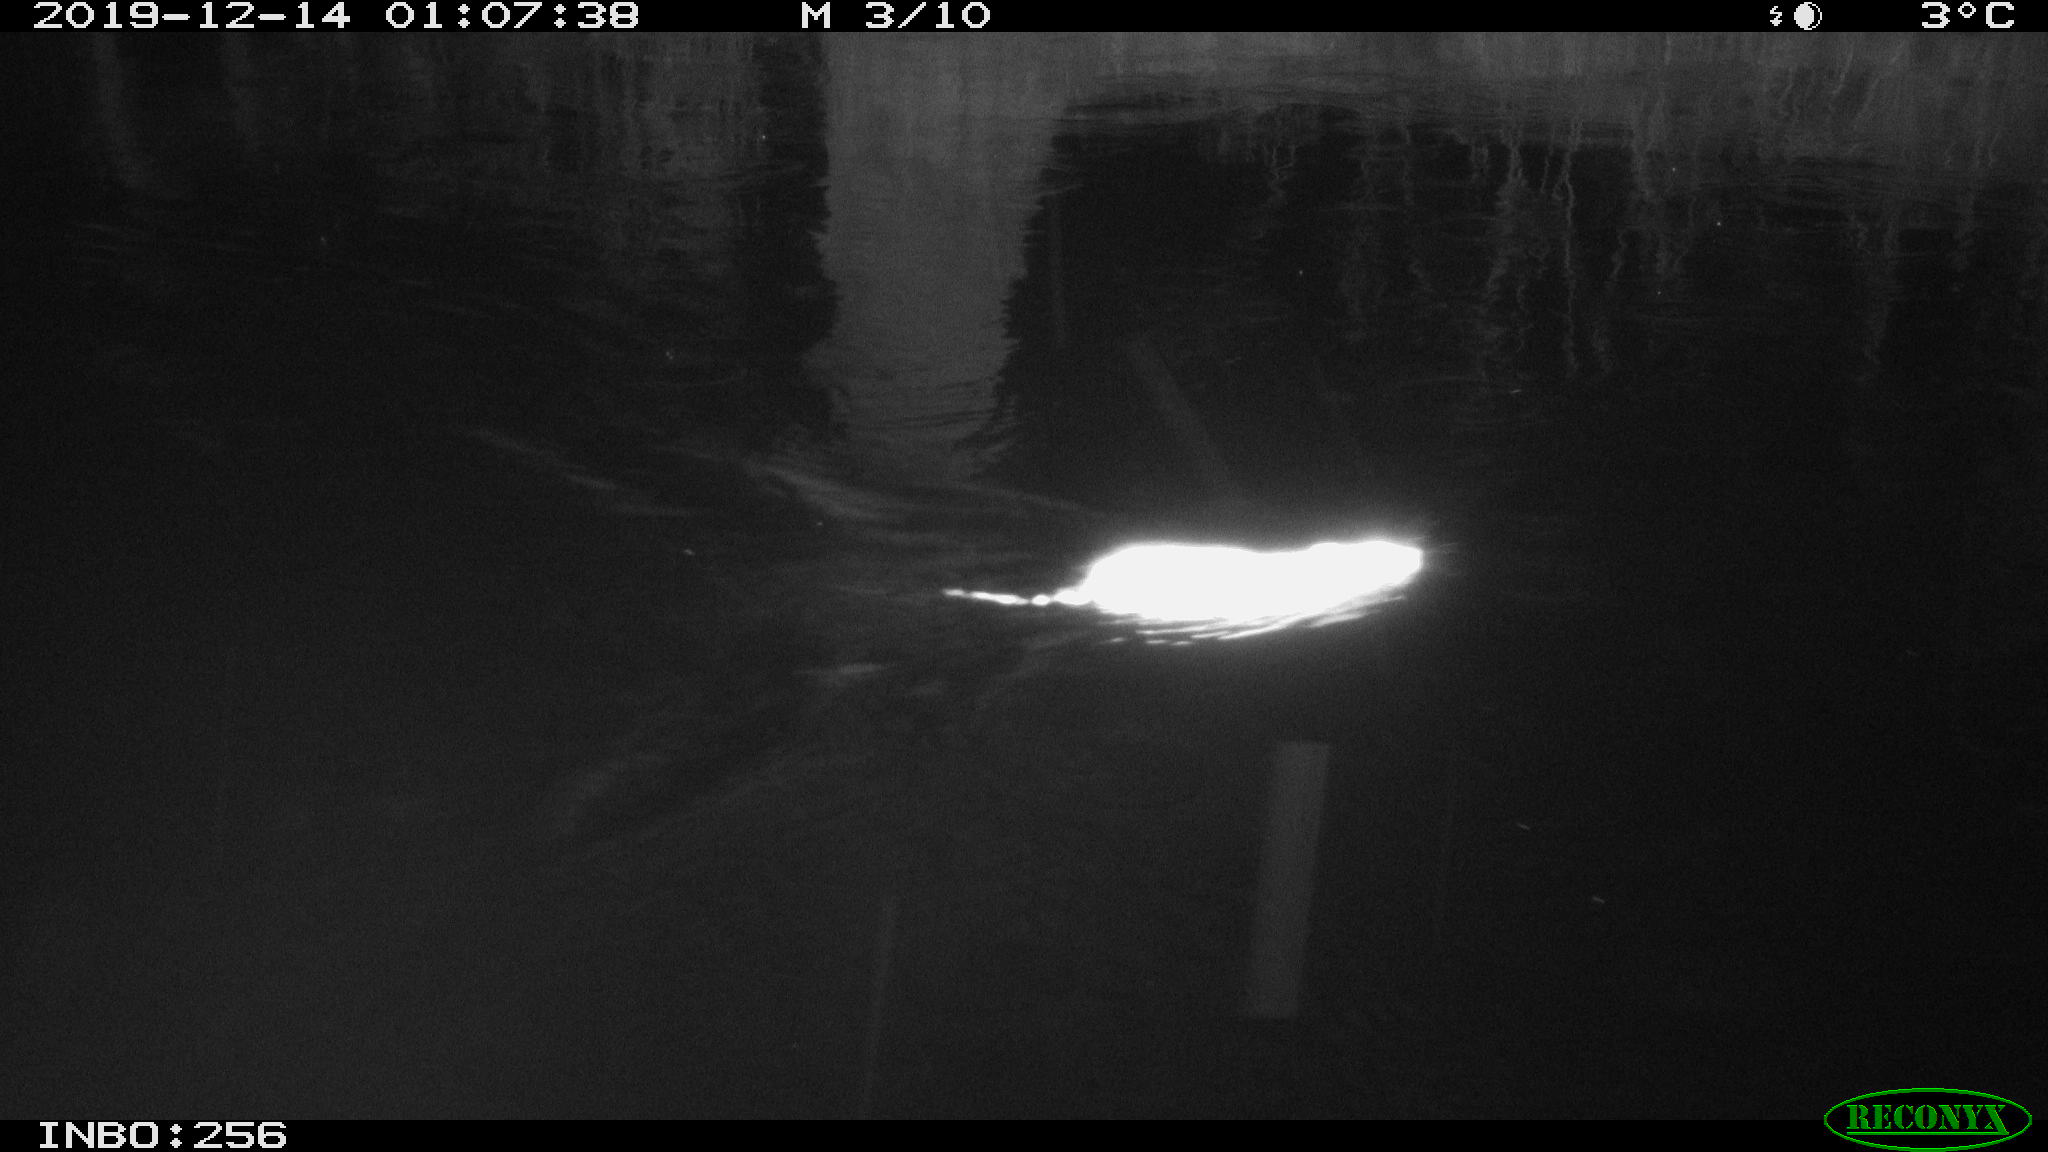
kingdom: Animalia
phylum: Chordata
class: Mammalia
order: Rodentia
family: Cricetidae
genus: Ondatra
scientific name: Ondatra zibethicus
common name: Muskrat
